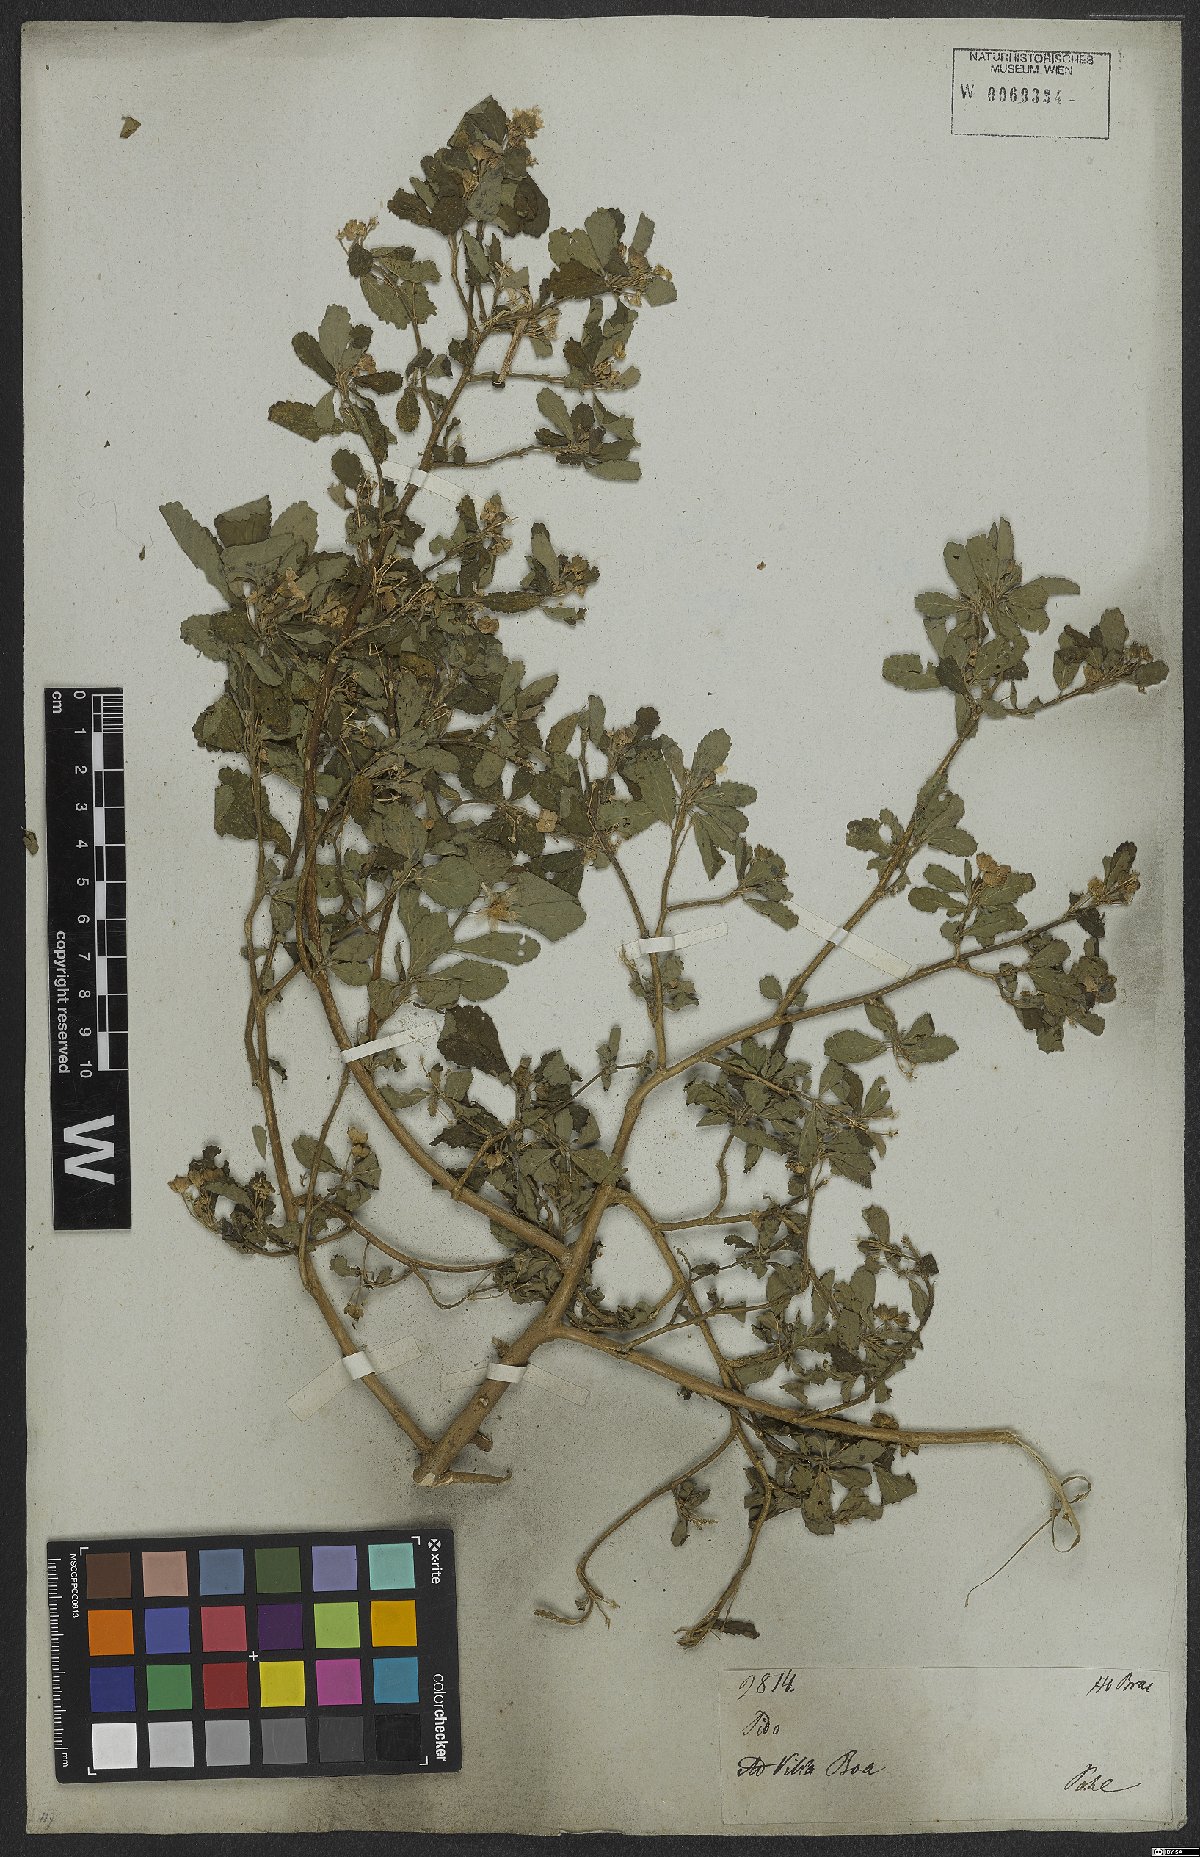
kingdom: Plantae
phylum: Tracheophyta
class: Magnoliopsida
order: Malvales
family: Malvaceae
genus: Sida
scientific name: Sida rhombifolia
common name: Queensland-hemp
